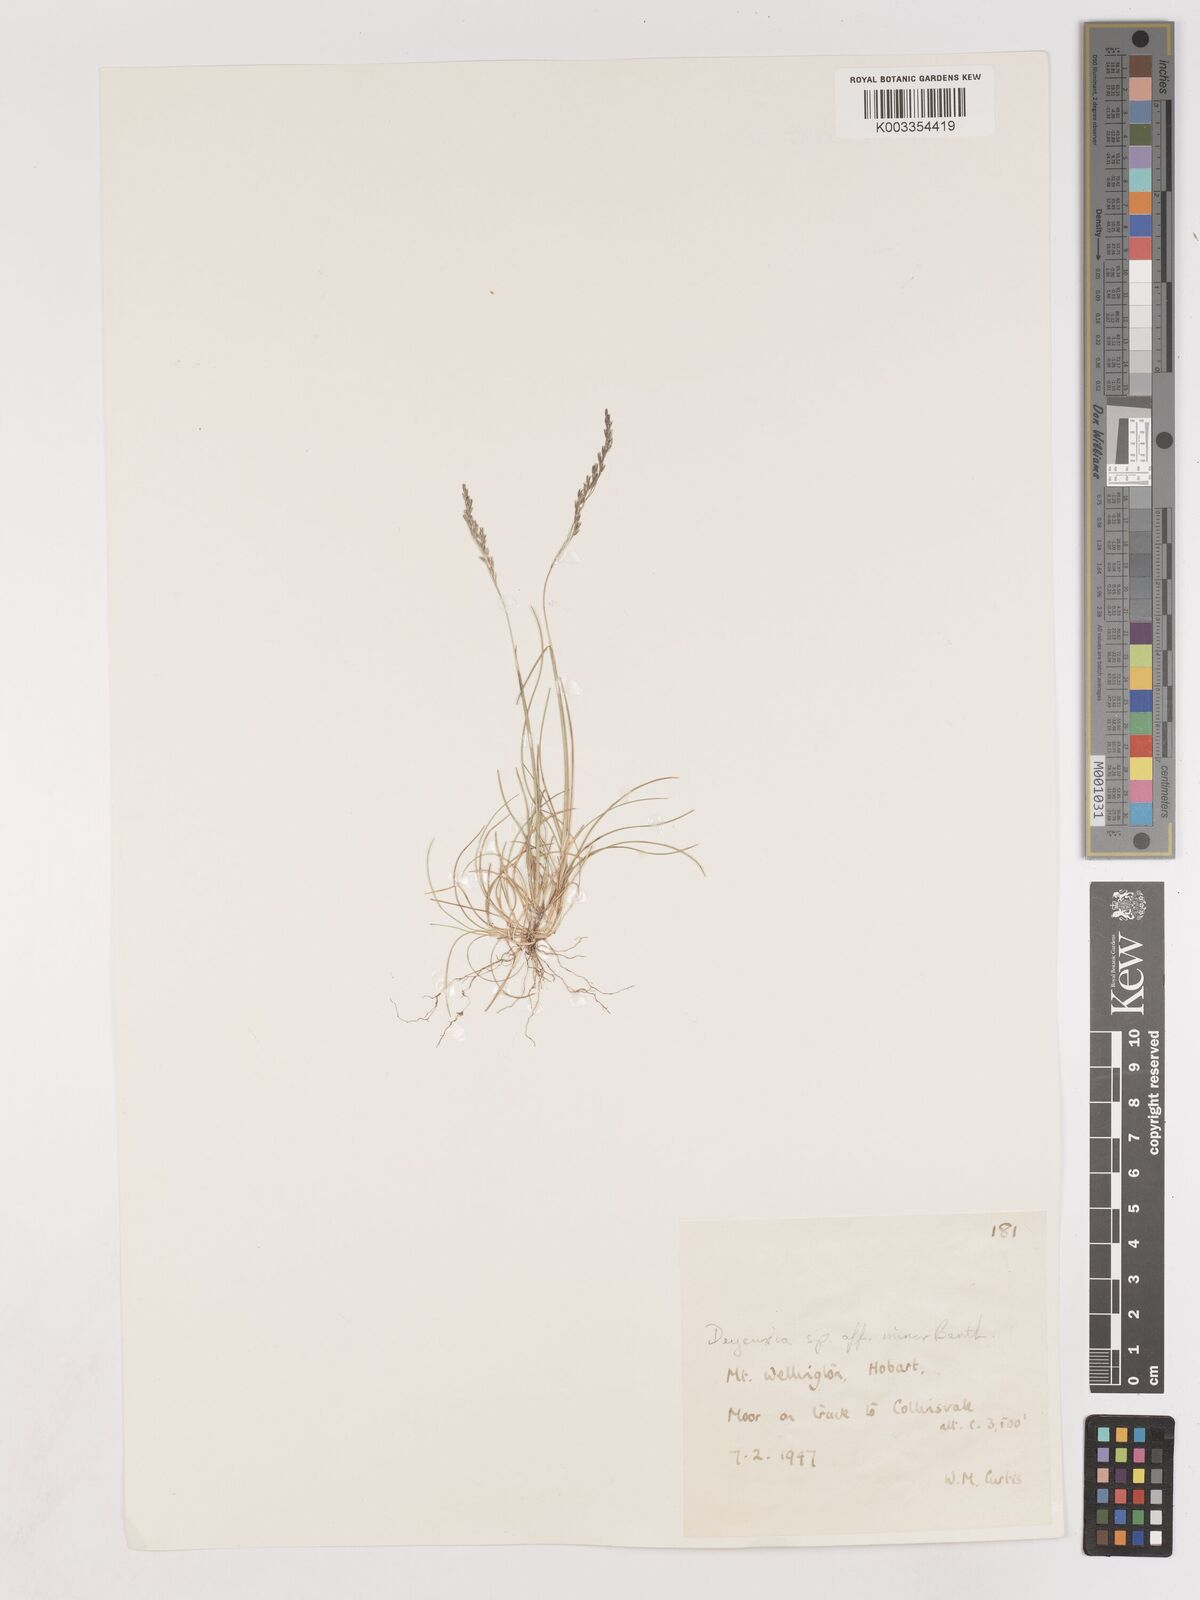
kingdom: Plantae
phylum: Tracheophyta
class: Liliopsida
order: Poales
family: Poaceae
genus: Calamagrostis
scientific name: Calamagrostis
